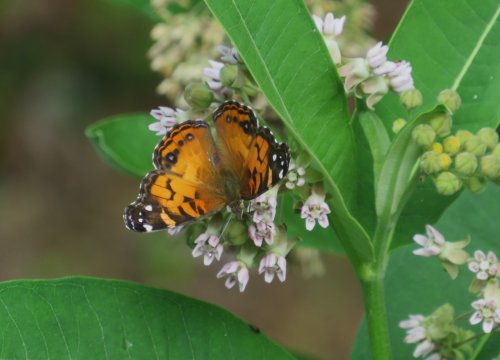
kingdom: Animalia
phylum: Arthropoda
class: Insecta
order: Lepidoptera
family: Nymphalidae
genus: Vanessa
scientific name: Vanessa virginiensis
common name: American Lady
